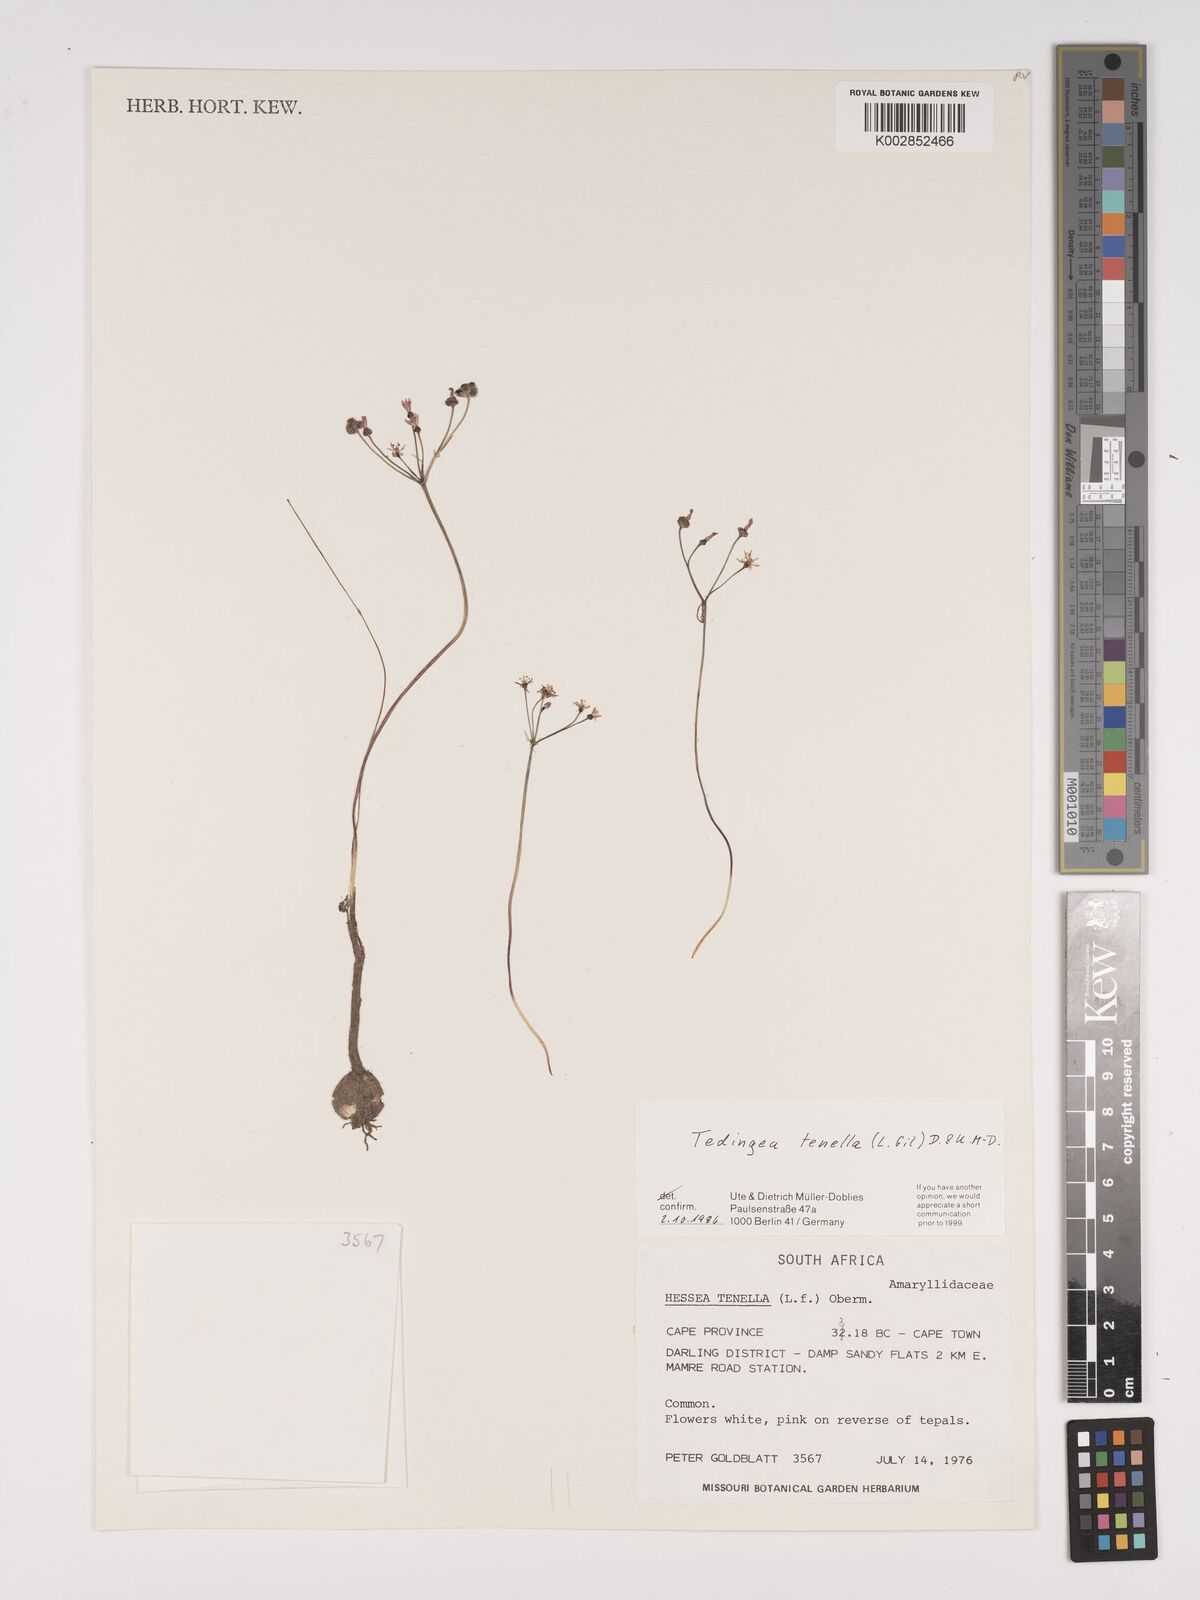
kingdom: Plantae
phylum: Tracheophyta
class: Liliopsida
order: Asparagales
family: Amaryllidaceae
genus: Strumaria
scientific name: Strumaria tenella
